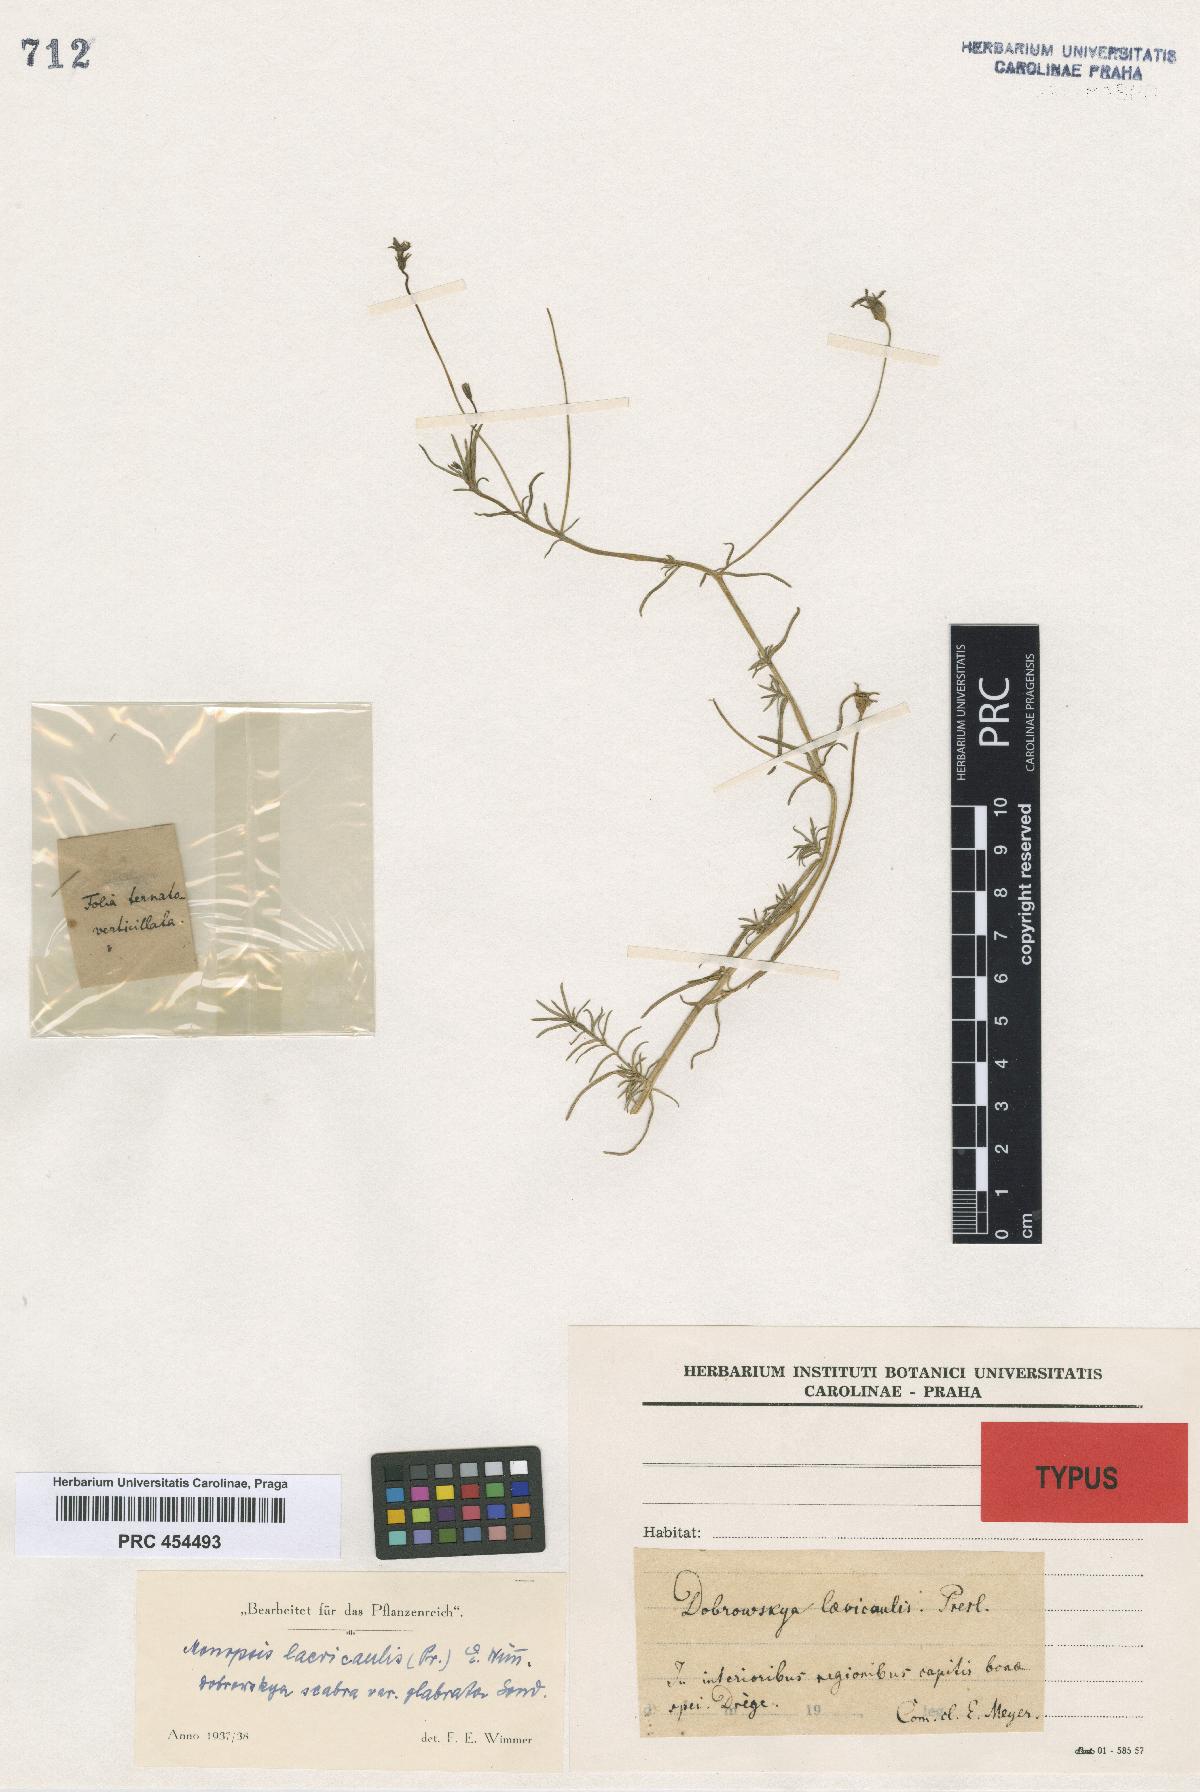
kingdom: Plantae
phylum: Tracheophyta
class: Magnoliopsida
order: Asterales
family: Campanulaceae
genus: Monopsis
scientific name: Monopsis unidentata
